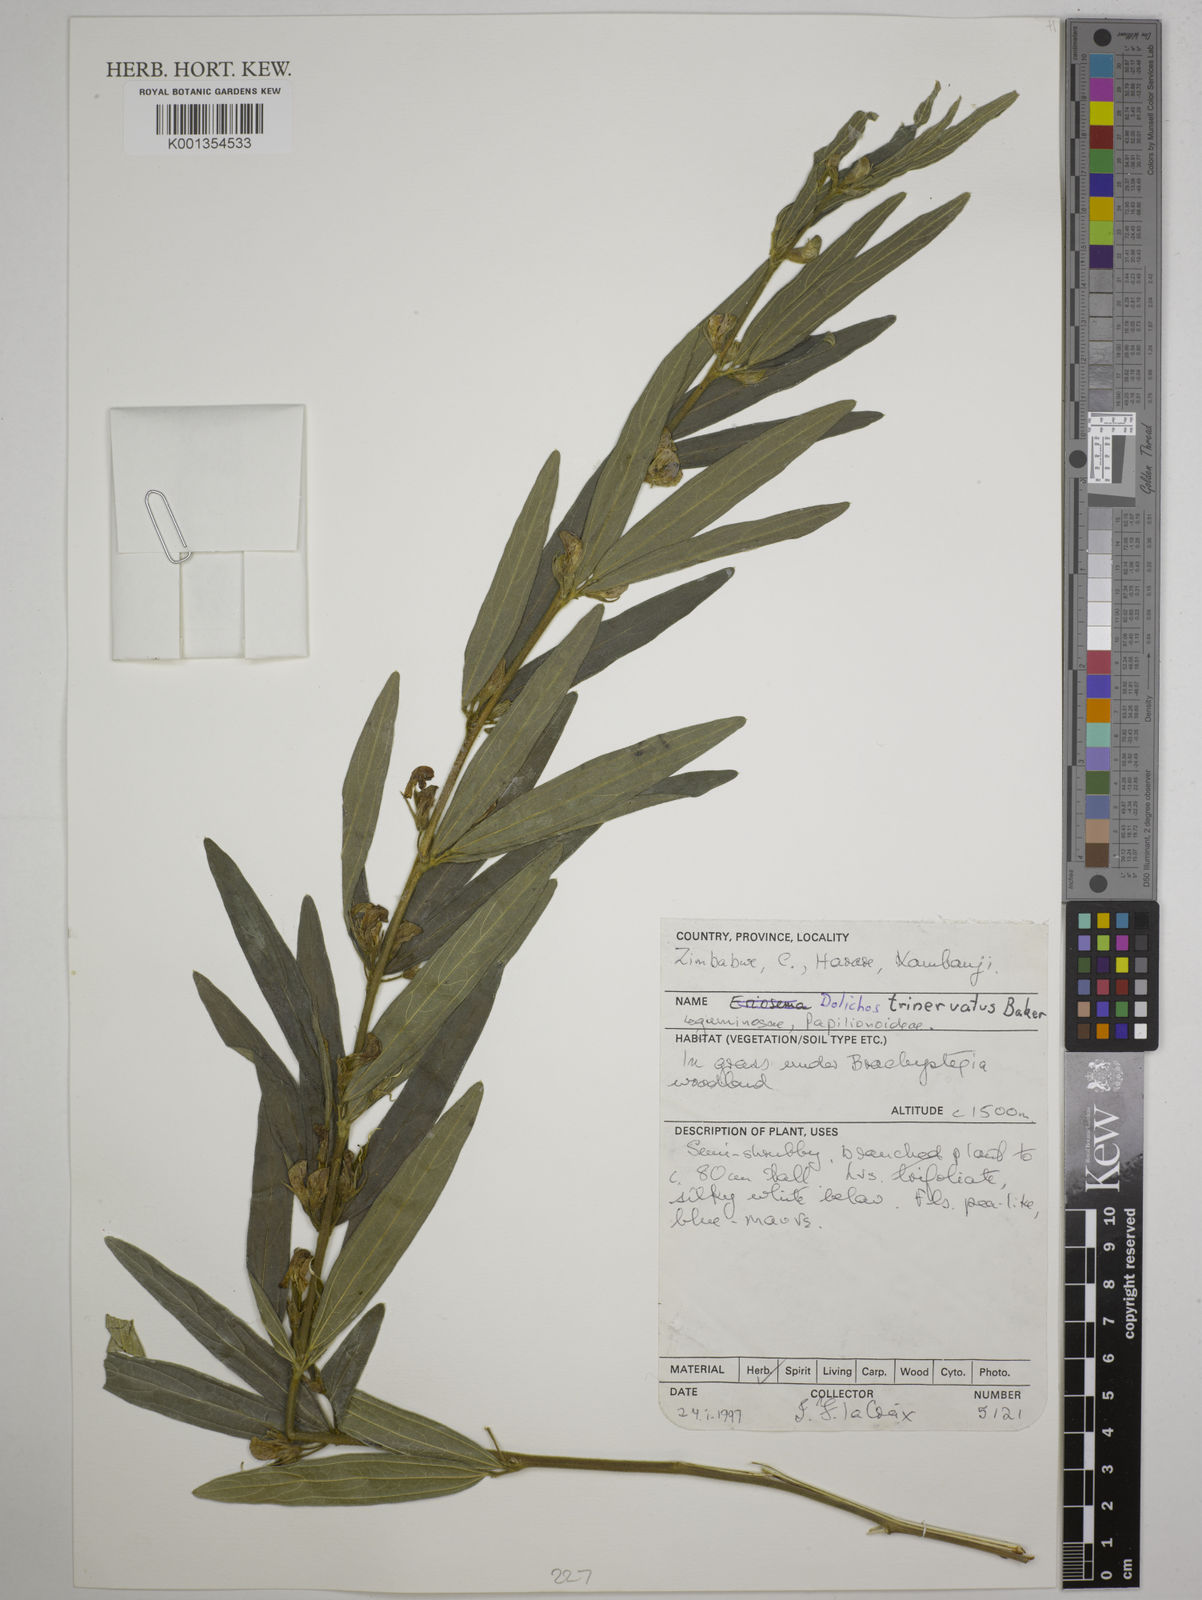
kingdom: Plantae
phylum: Tracheophyta
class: Magnoliopsida
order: Fabales
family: Fabaceae
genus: Dolichos
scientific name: Dolichos trinervatus
